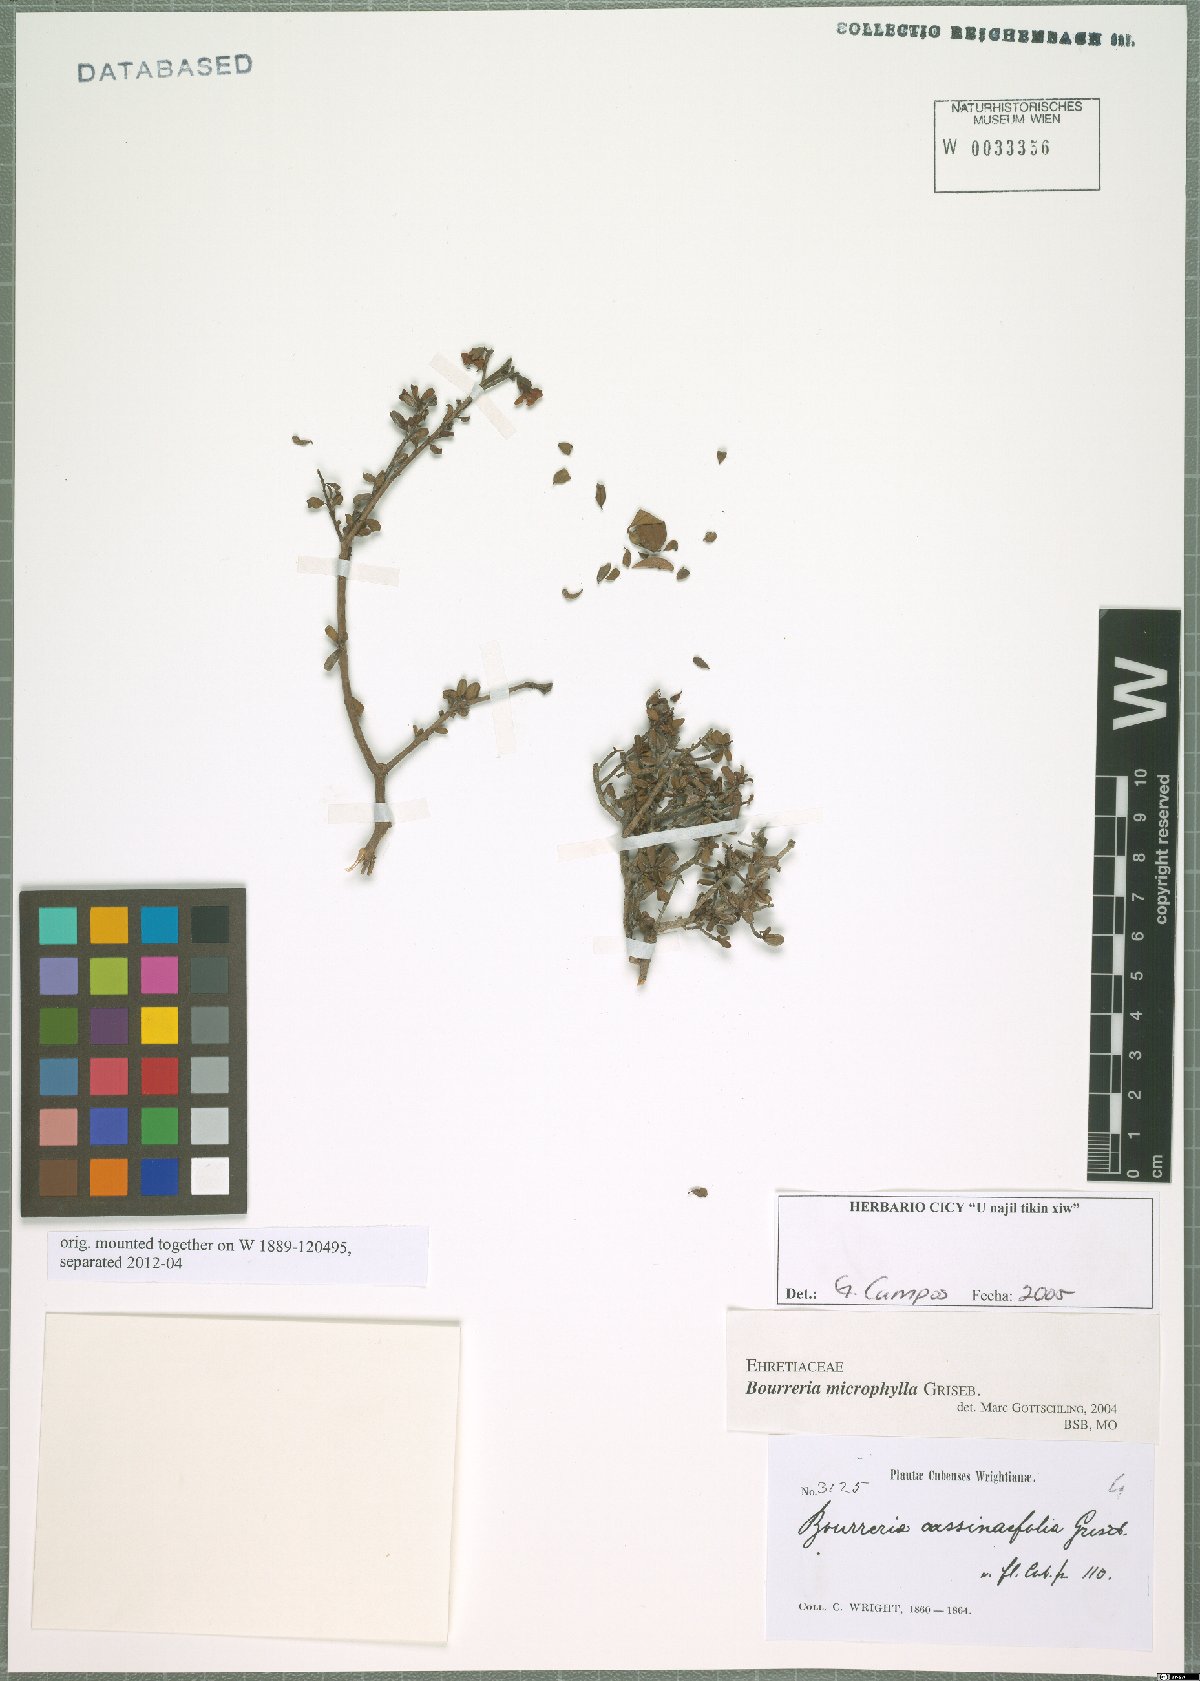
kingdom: Plantae
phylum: Tracheophyta
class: Magnoliopsida
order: Boraginales
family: Ehretiaceae
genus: Bourreria
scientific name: Bourreria microphylla
